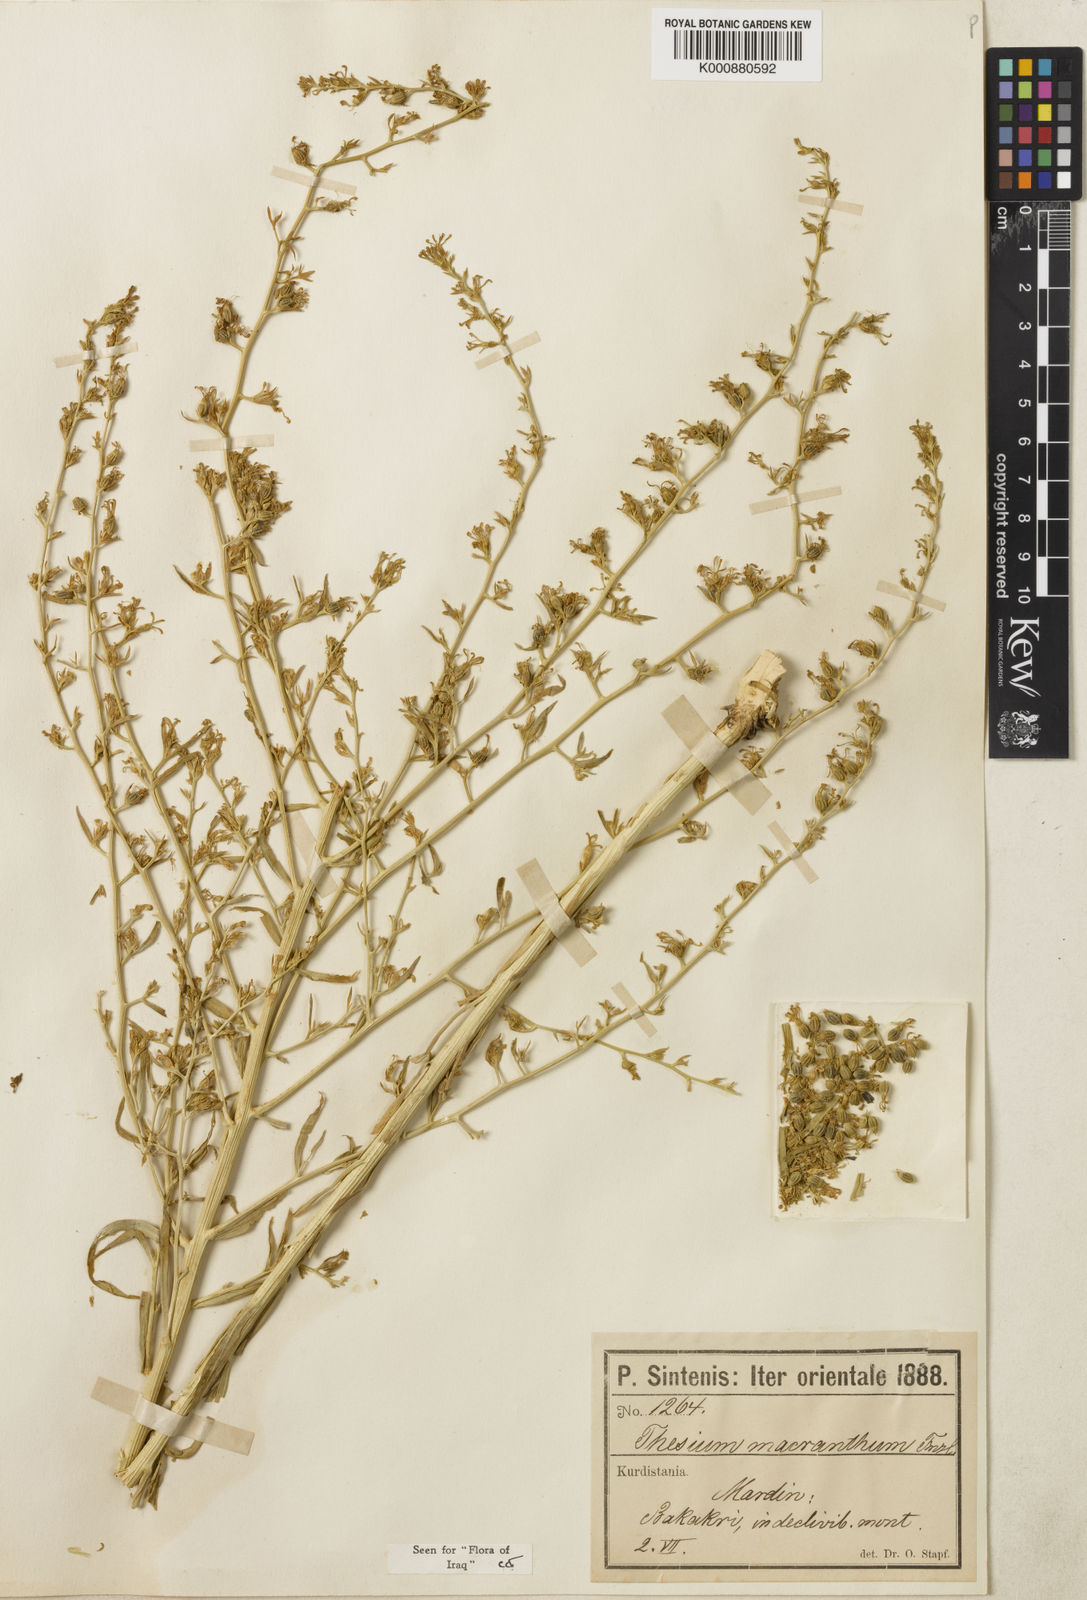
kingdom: Plantae
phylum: Tracheophyta
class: Magnoliopsida
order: Santalales
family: Thesiaceae
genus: Thesium
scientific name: Thesium macranthum
